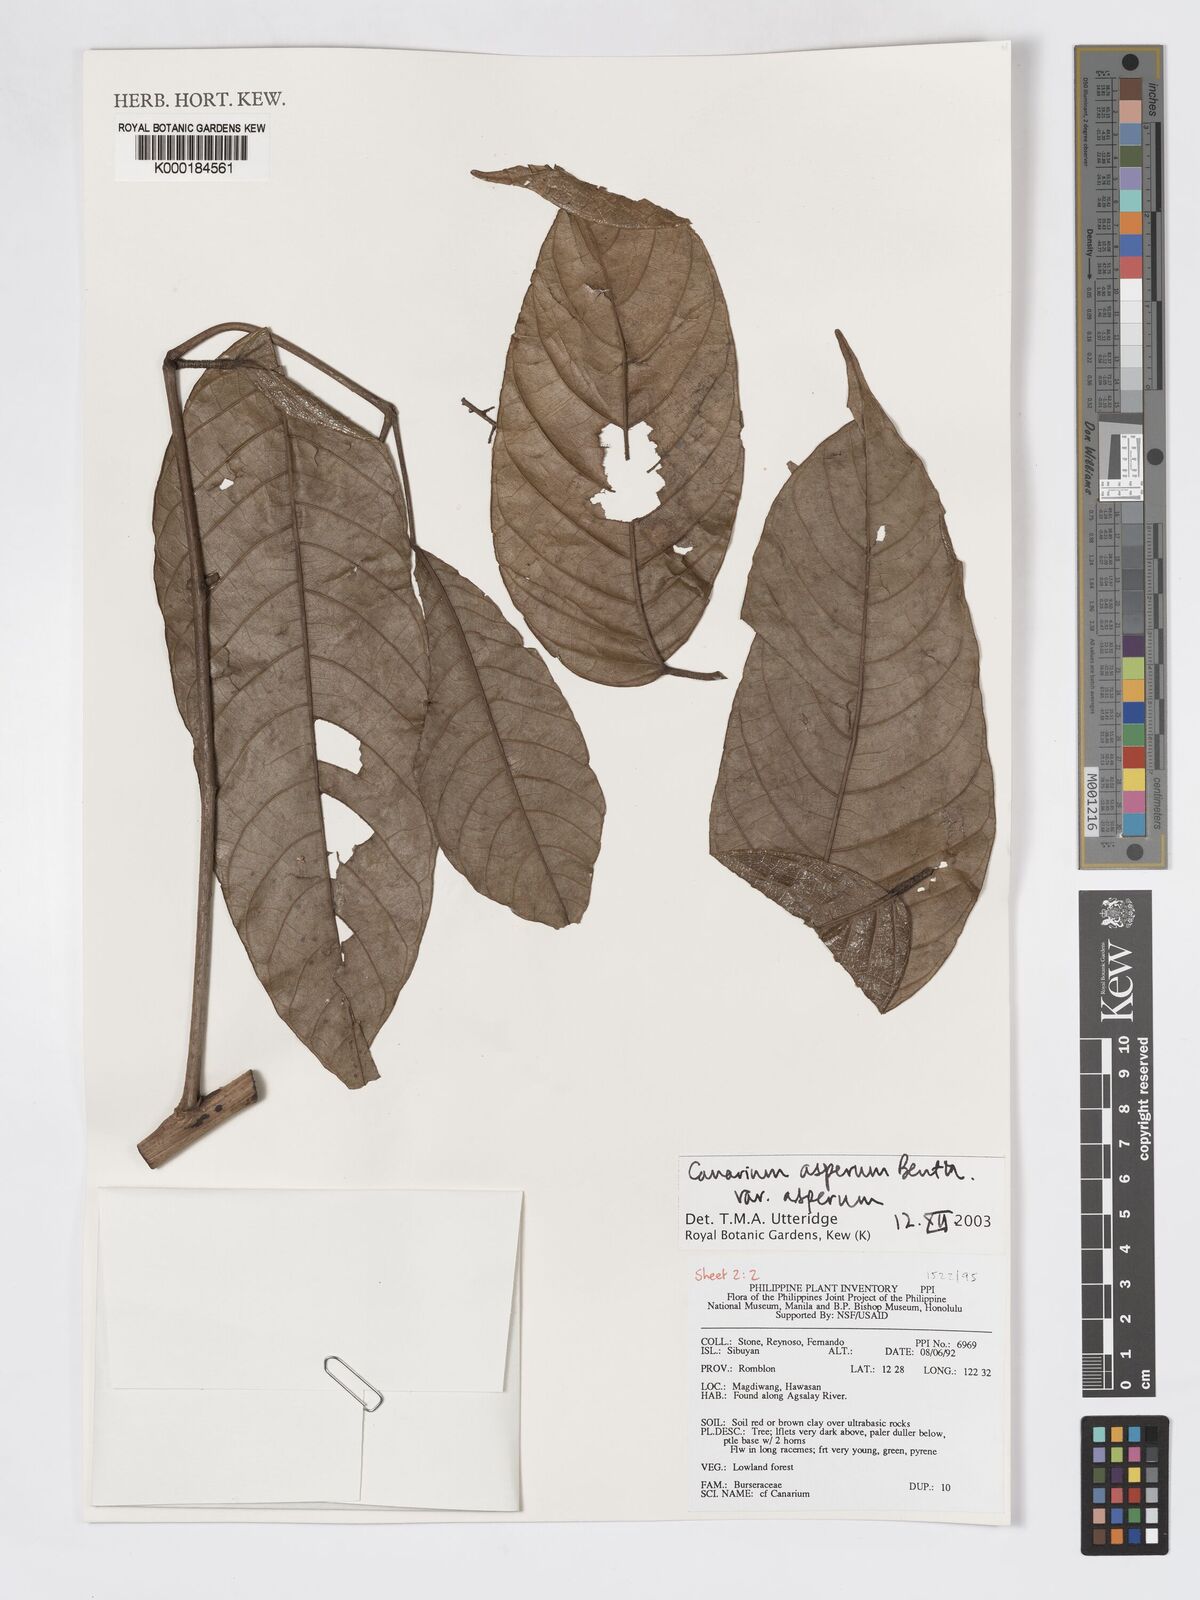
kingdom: Plantae
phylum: Tracheophyta
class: Magnoliopsida
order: Sapindales
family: Burseraceae
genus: Canarium
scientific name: Canarium asperum
